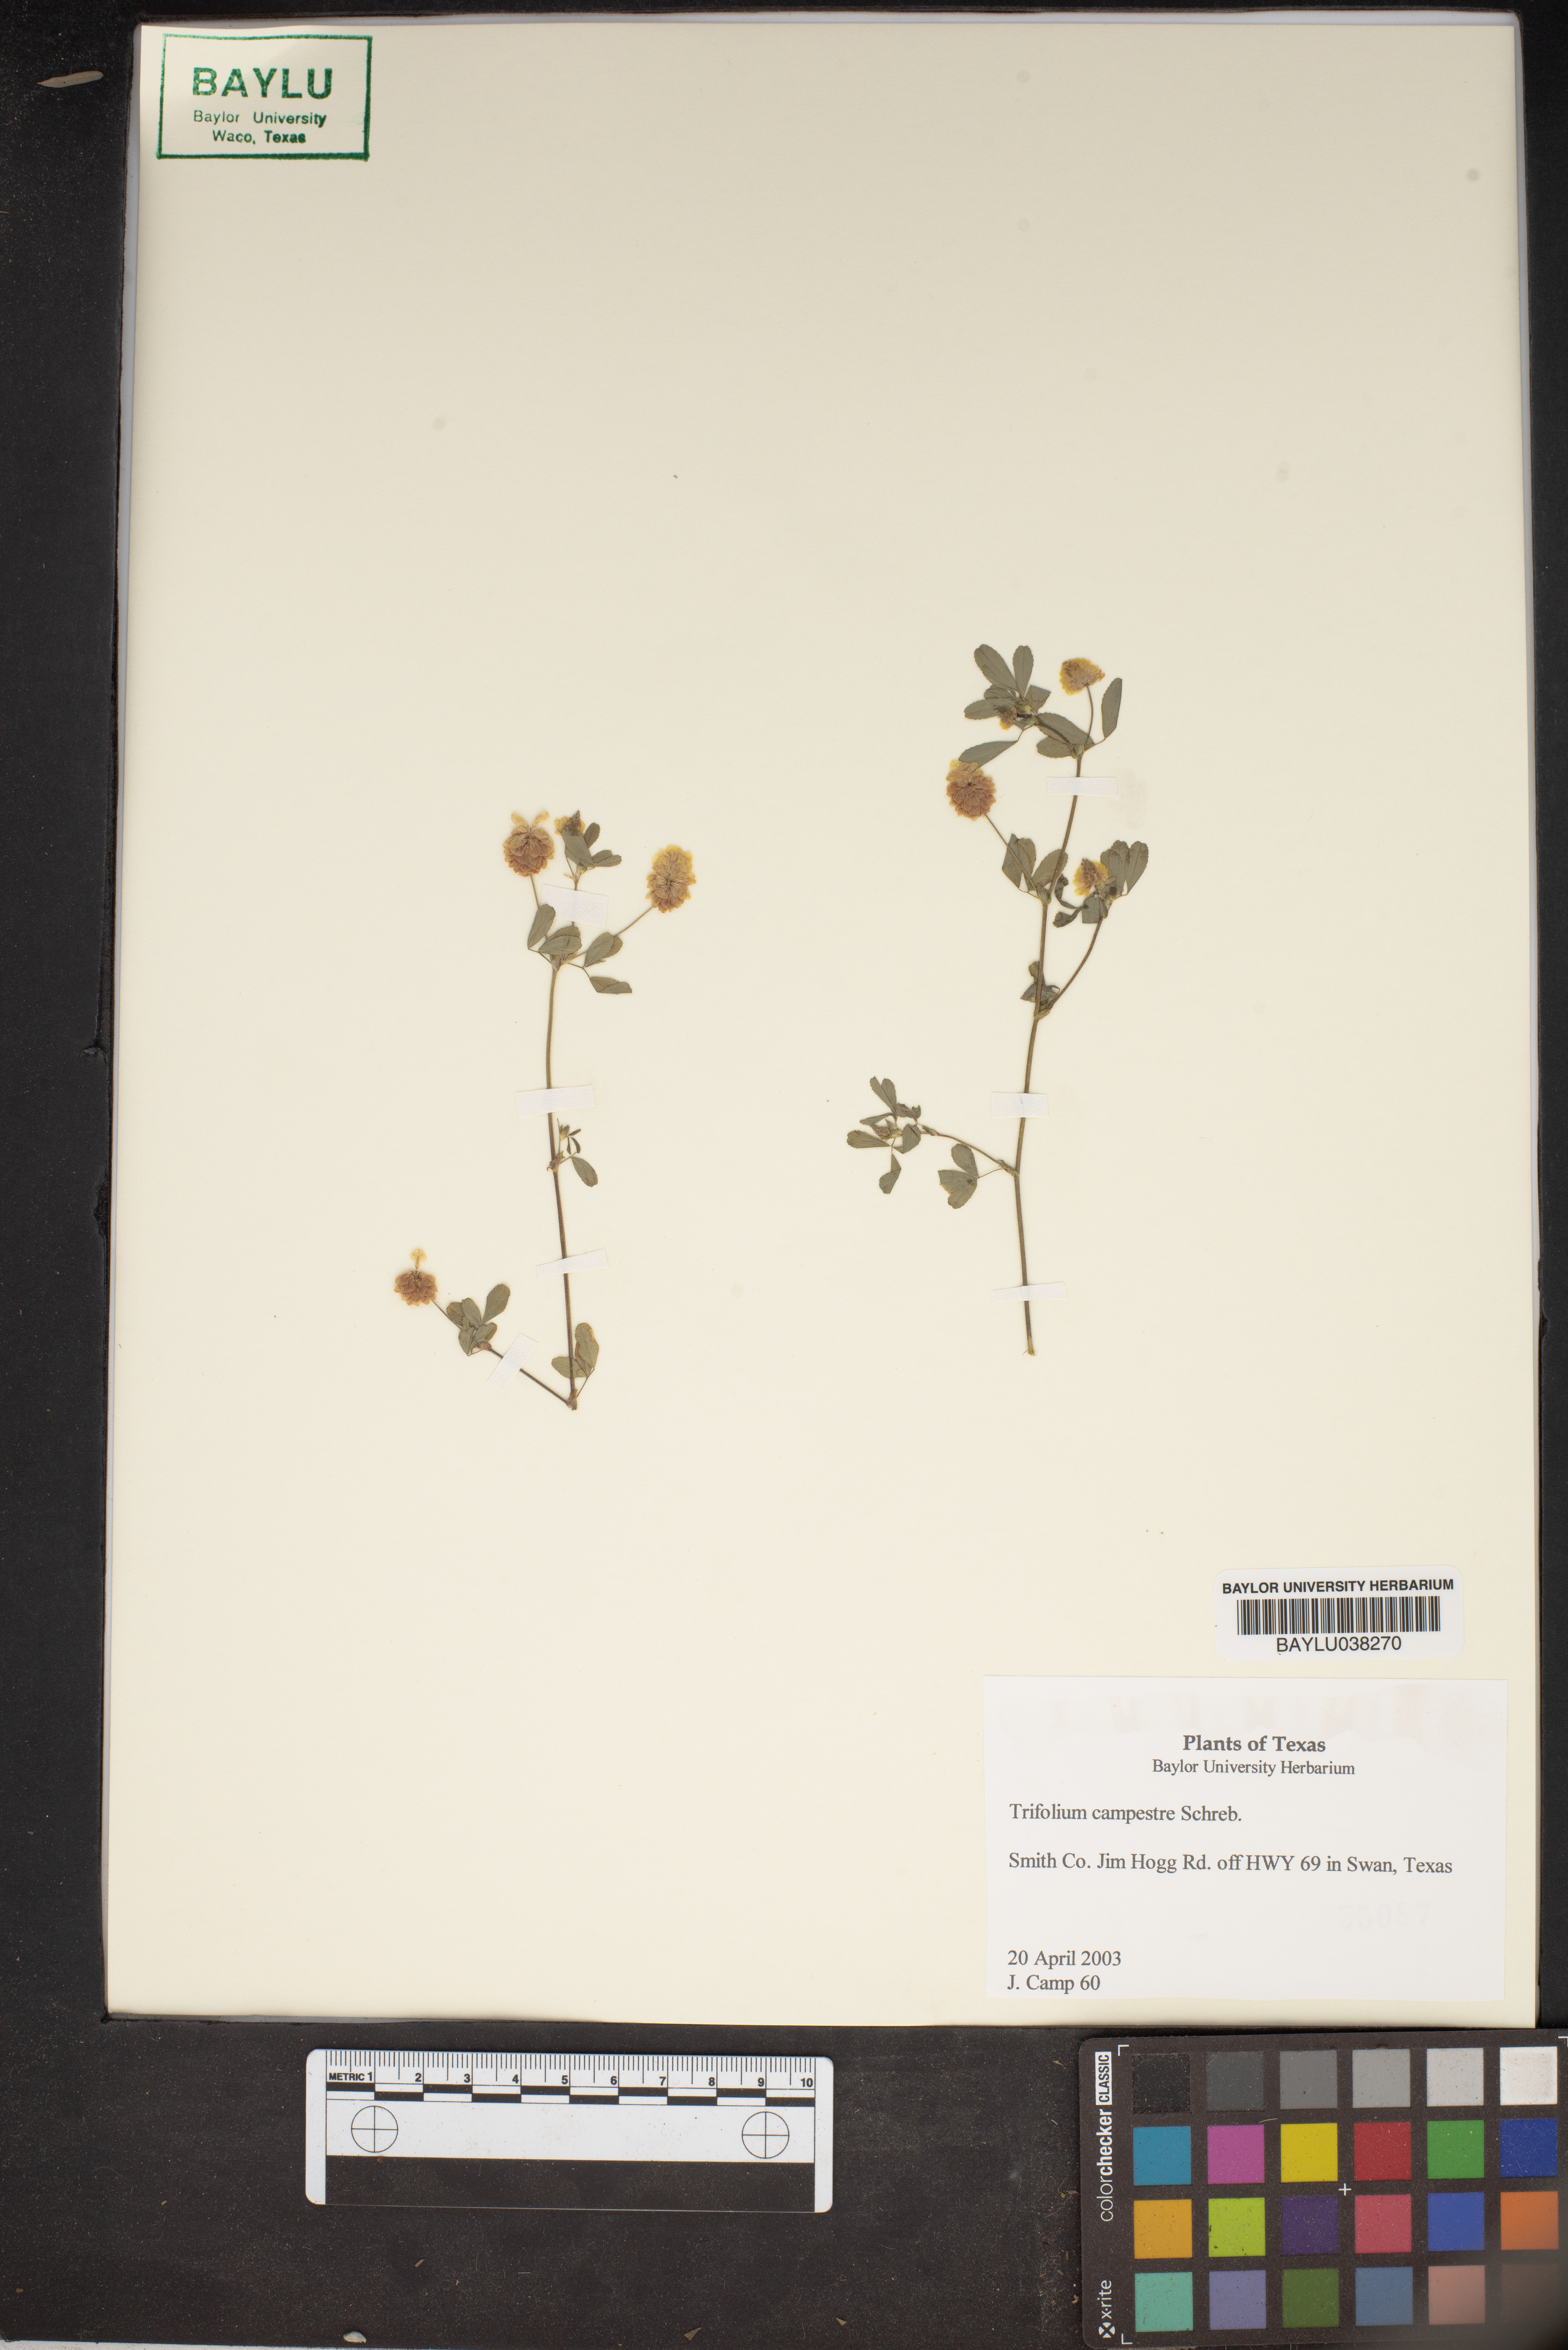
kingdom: Plantae
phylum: Tracheophyta
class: Magnoliopsida
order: Fabales
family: Fabaceae
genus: Trifolium
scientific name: Trifolium campestre
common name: Field clover
